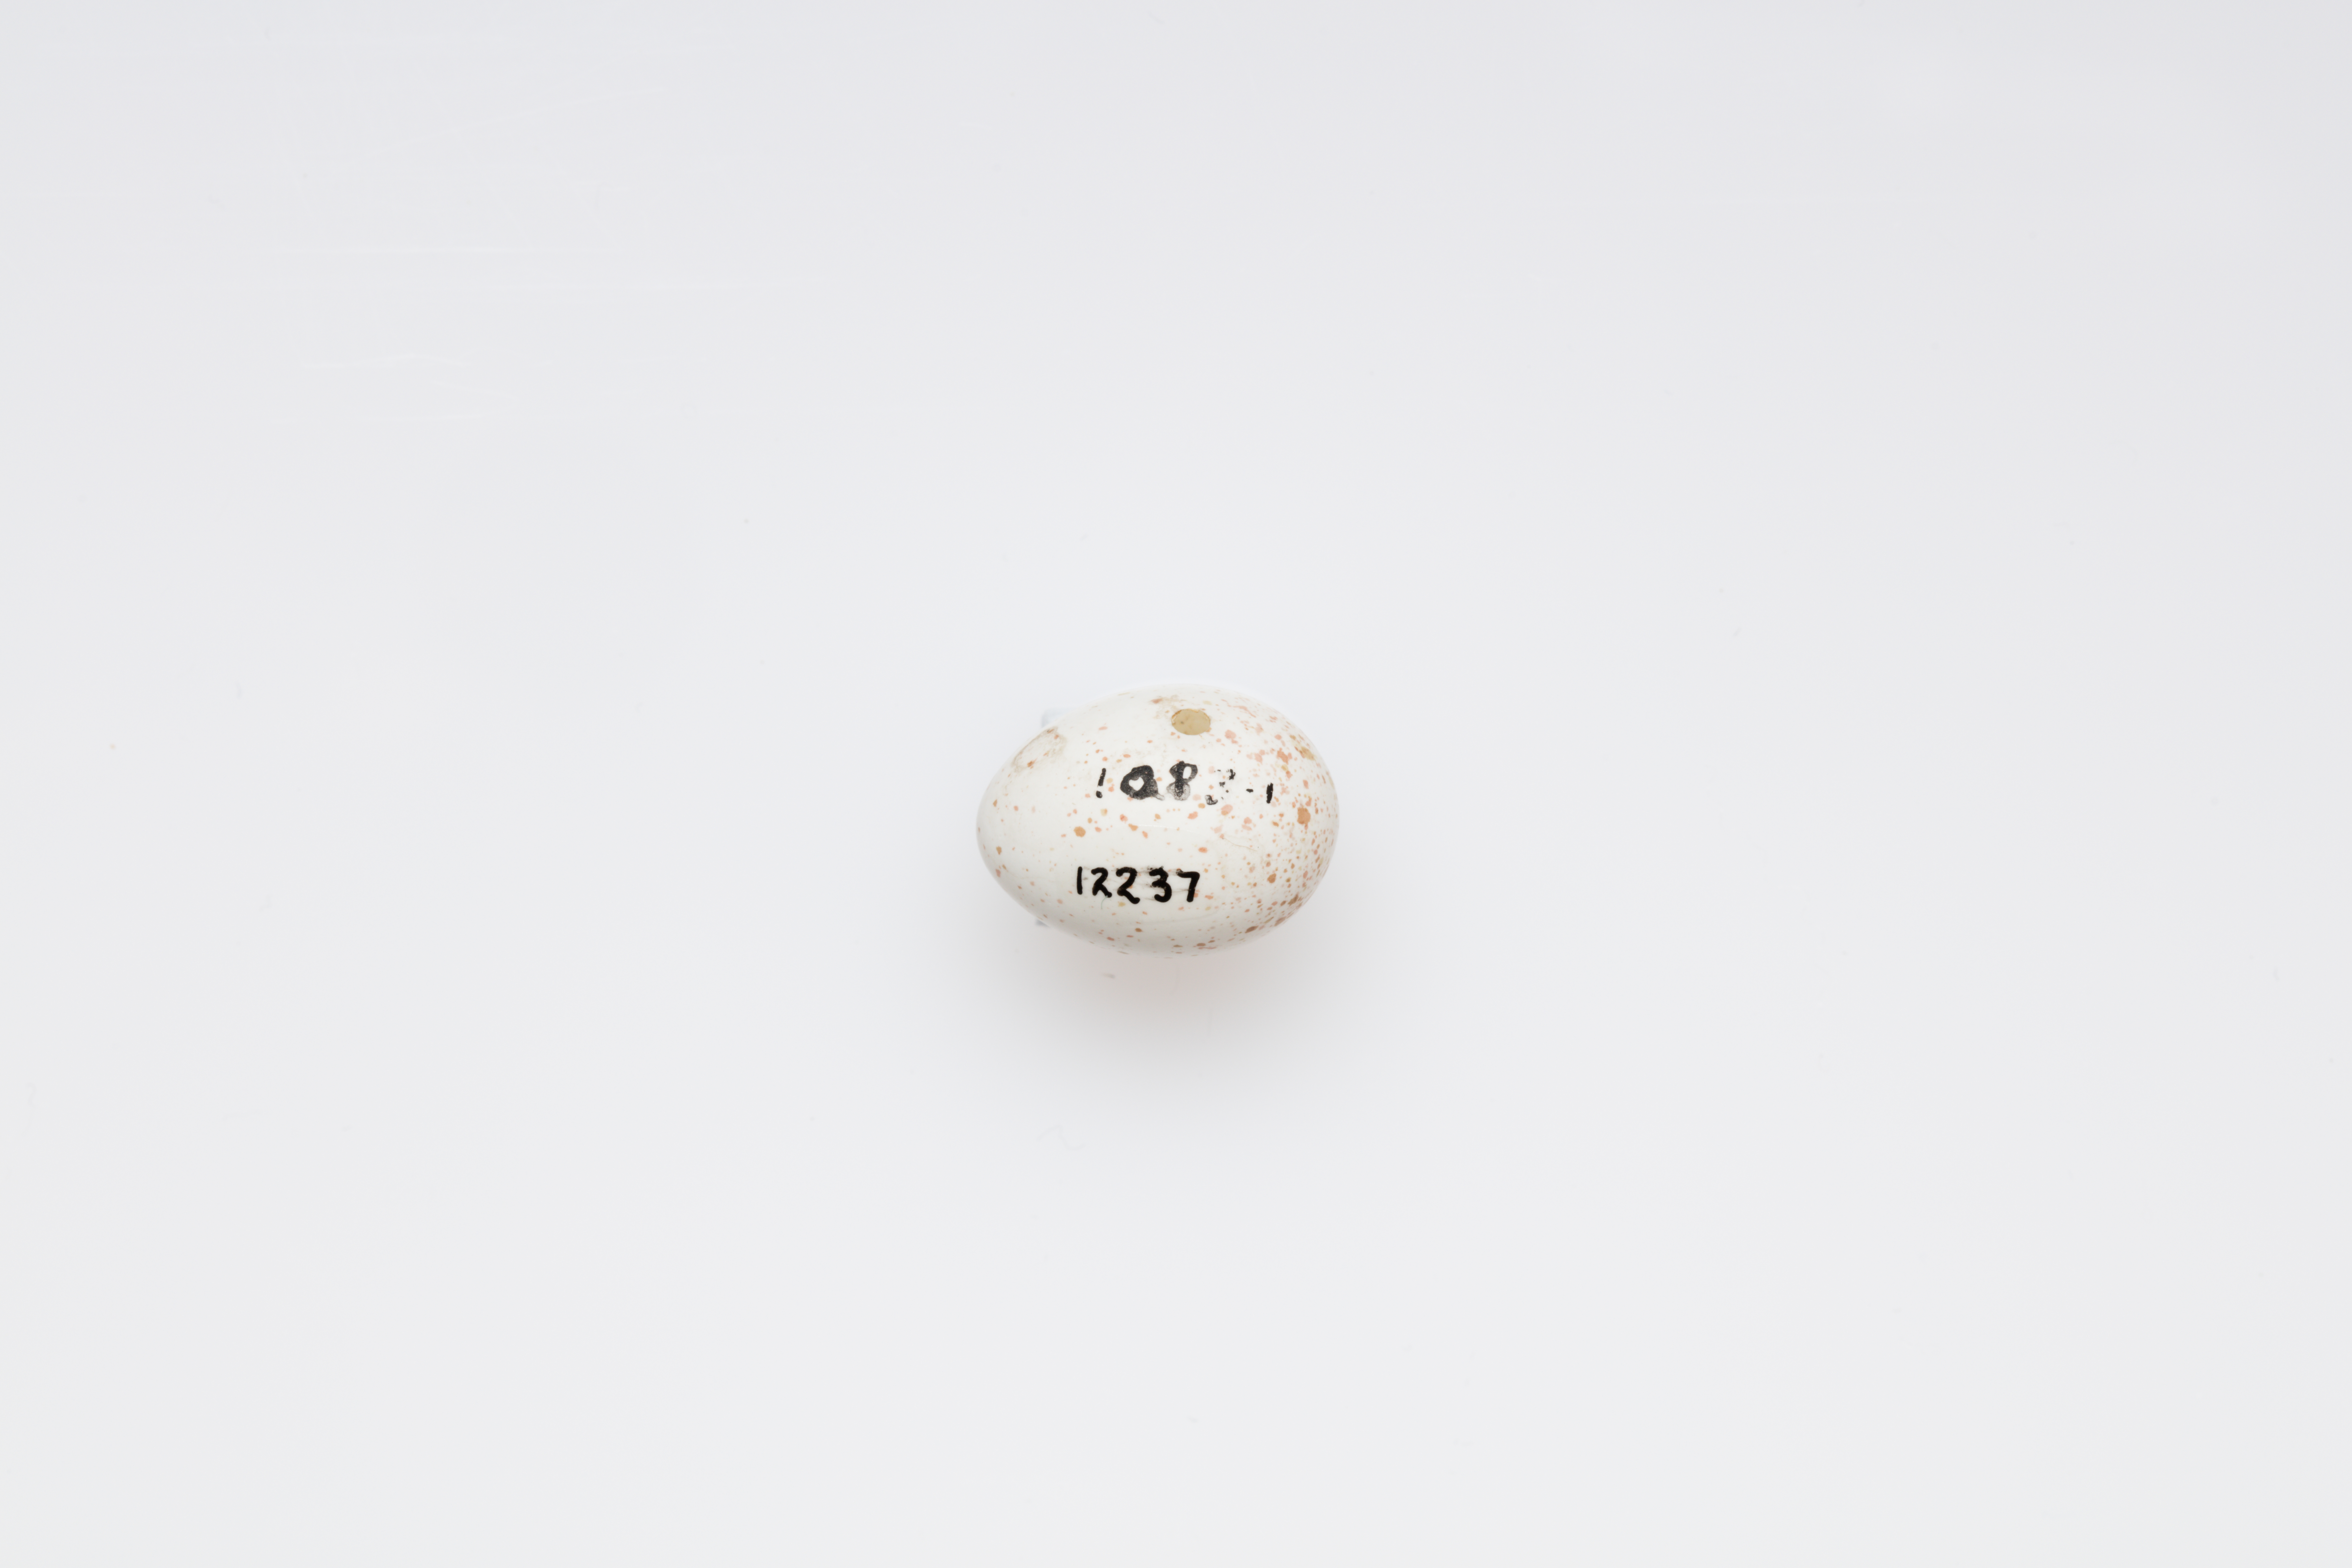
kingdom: Animalia
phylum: Chordata
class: Aves
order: Passeriformes
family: Paridae
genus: Cyanistes
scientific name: Cyanistes caeruleus
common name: Eurasian blue tit
